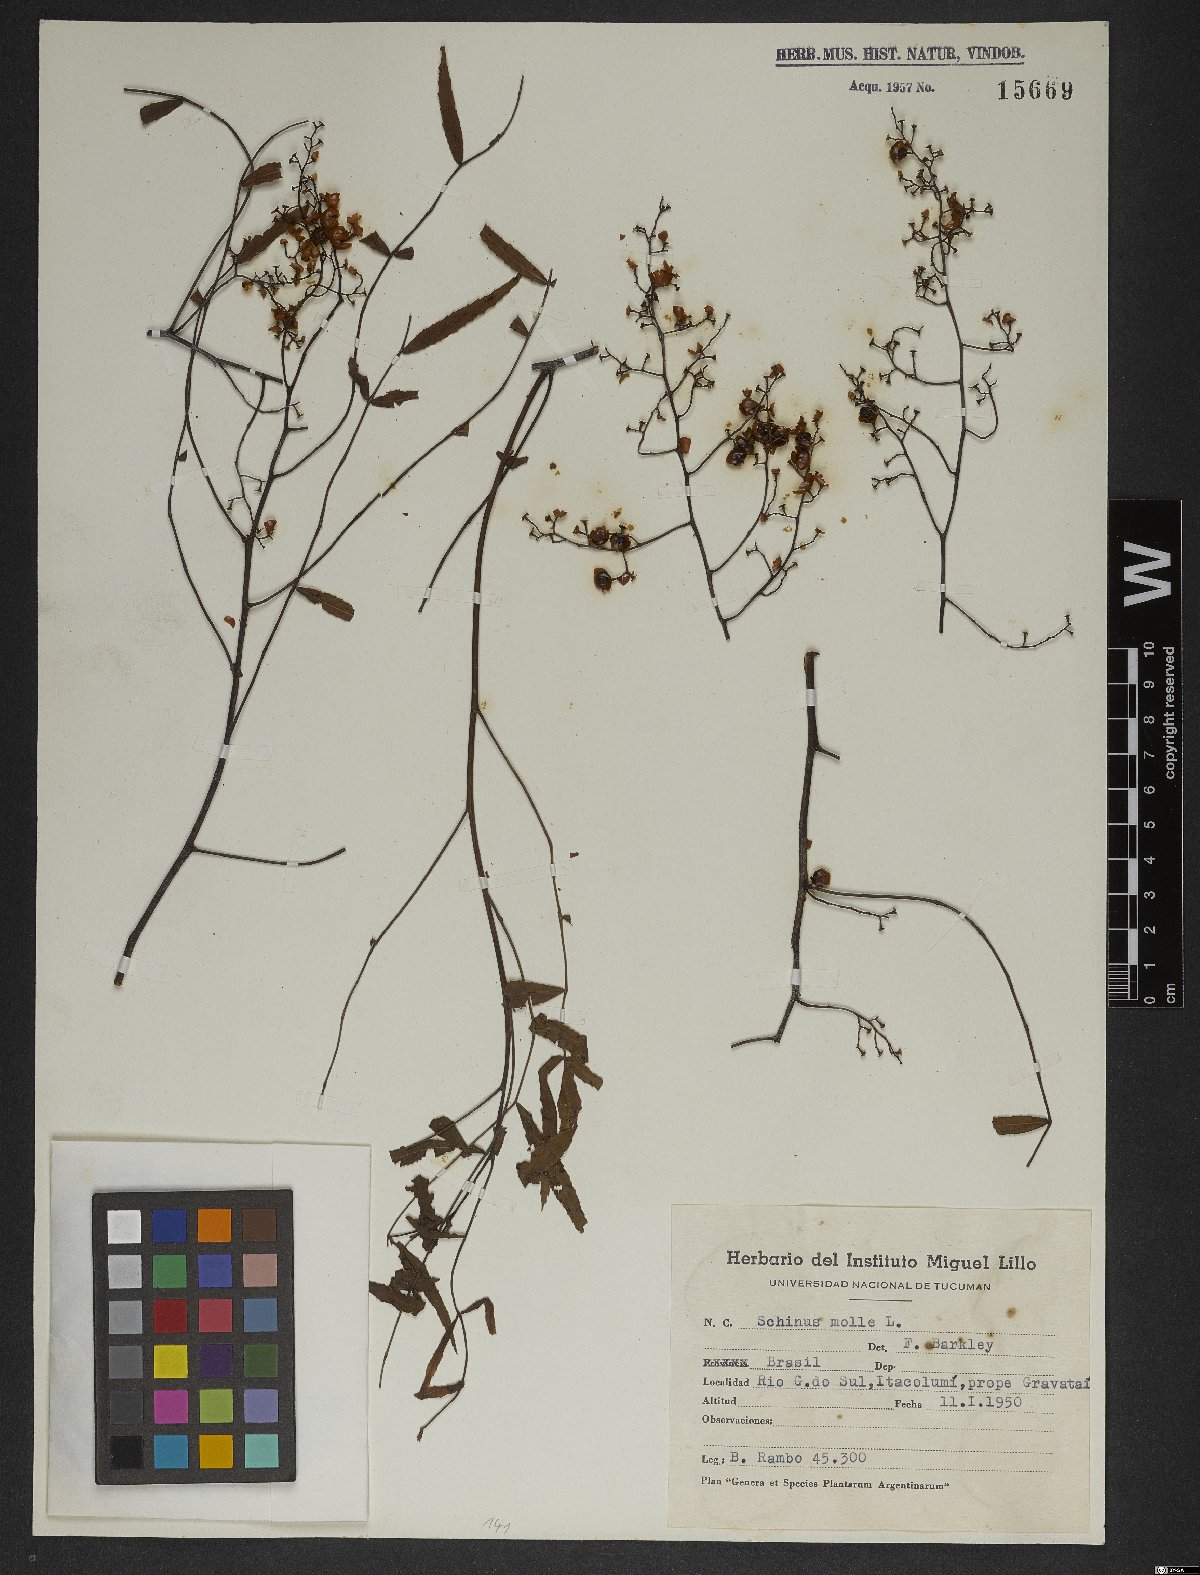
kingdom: Plantae
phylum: Tracheophyta
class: Magnoliopsida
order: Sapindales
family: Anacardiaceae
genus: Schinus
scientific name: Schinus molle
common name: Peruvian peppertree
